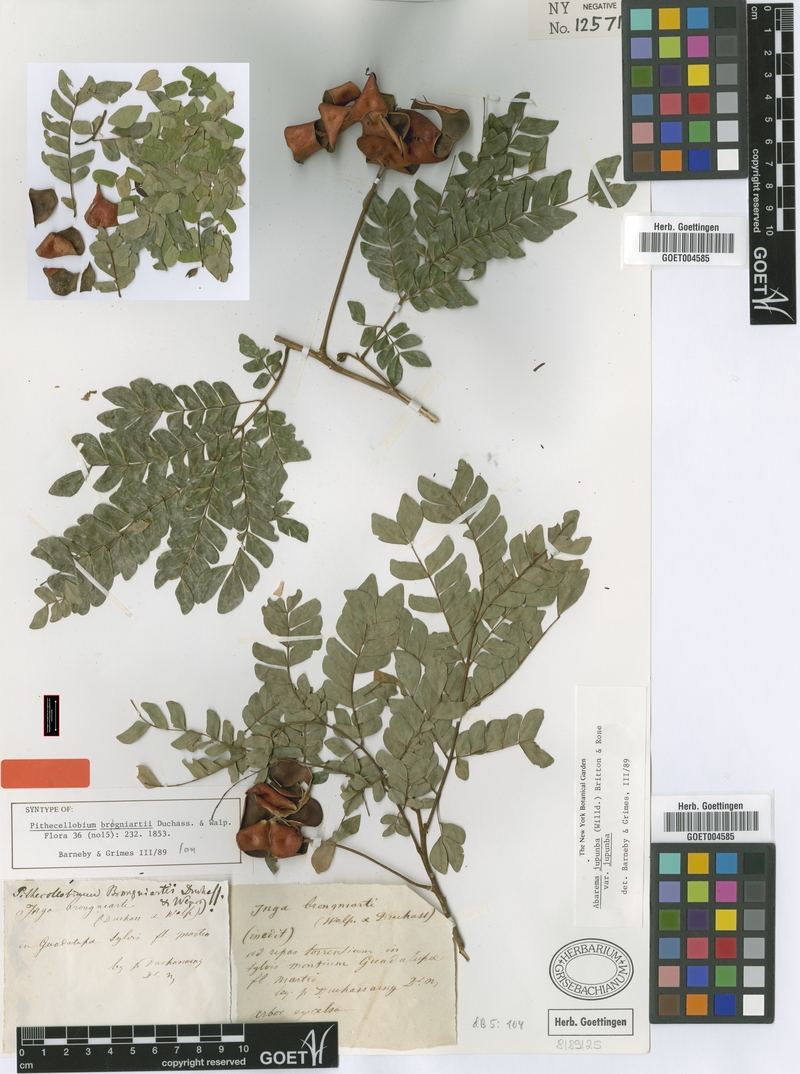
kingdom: Plantae
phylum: Tracheophyta
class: Magnoliopsida
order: Fabales
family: Fabaceae
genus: Jupunba
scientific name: Jupunba trapezifolia
